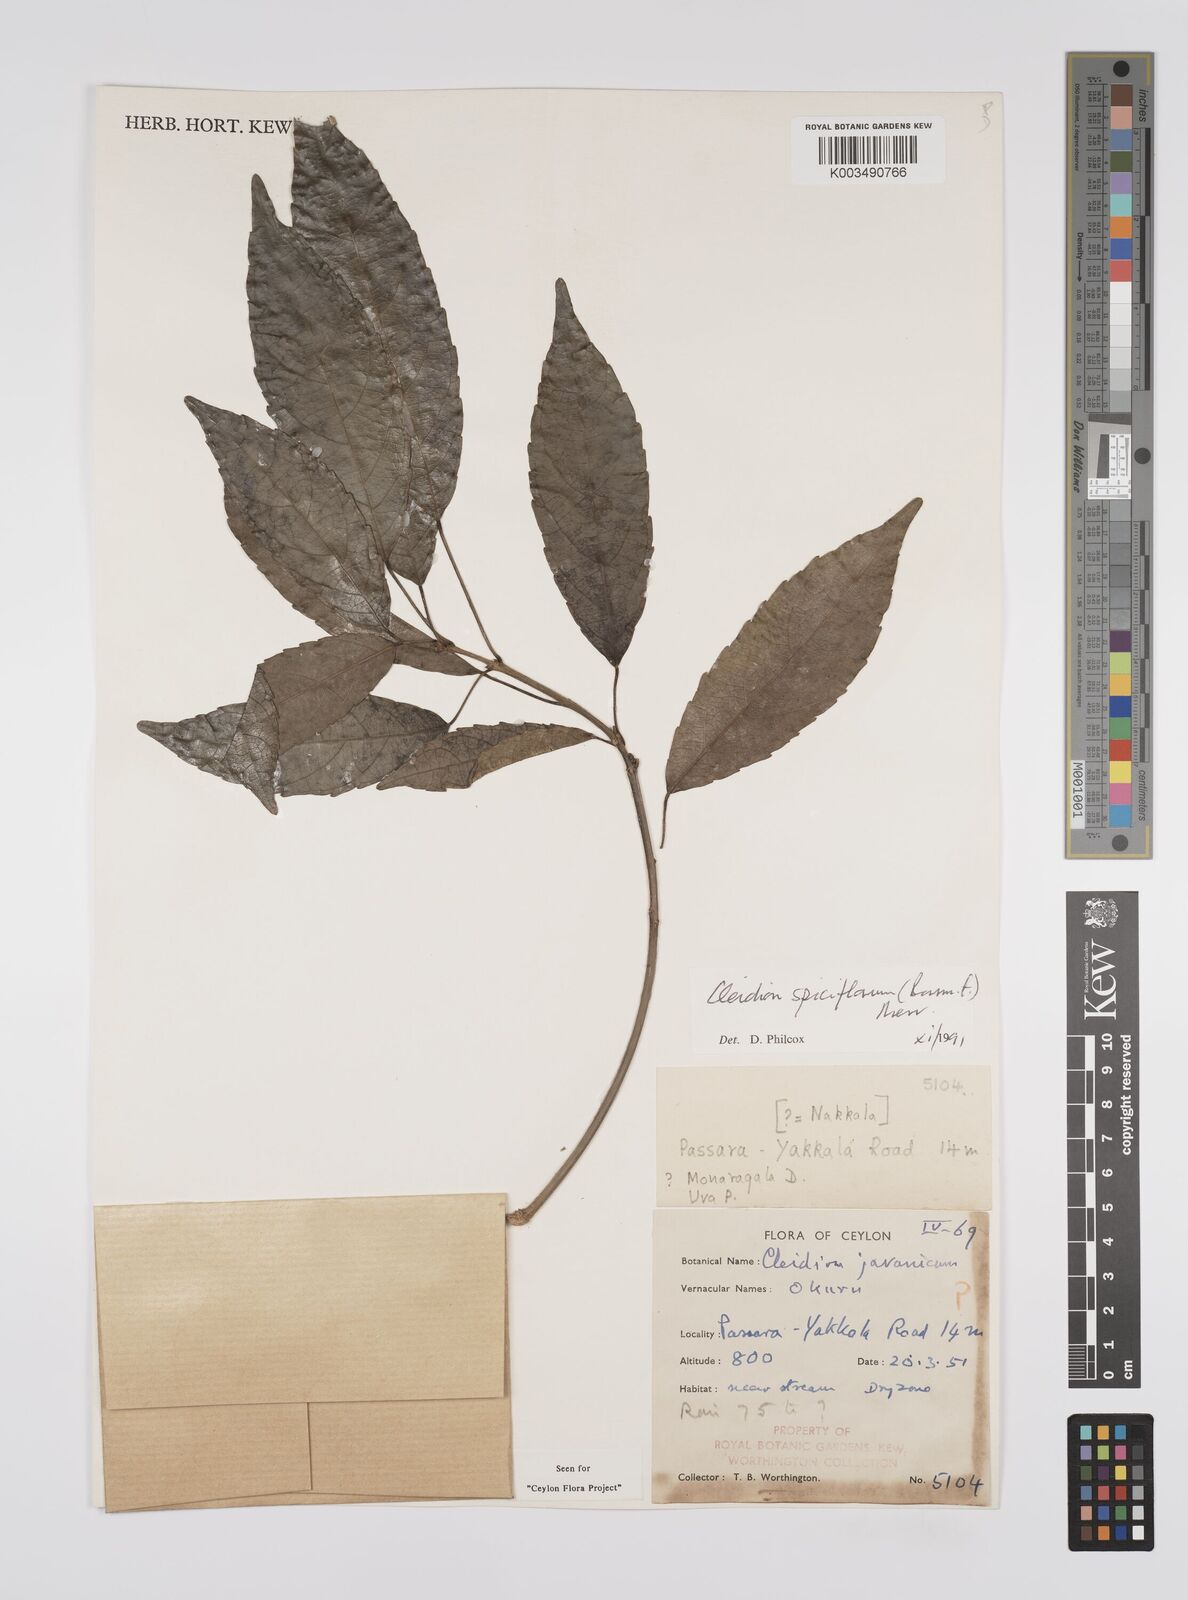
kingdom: Plantae
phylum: Tracheophyta
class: Magnoliopsida
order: Malpighiales
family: Euphorbiaceae
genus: Acalypha
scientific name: Acalypha spiciflora
